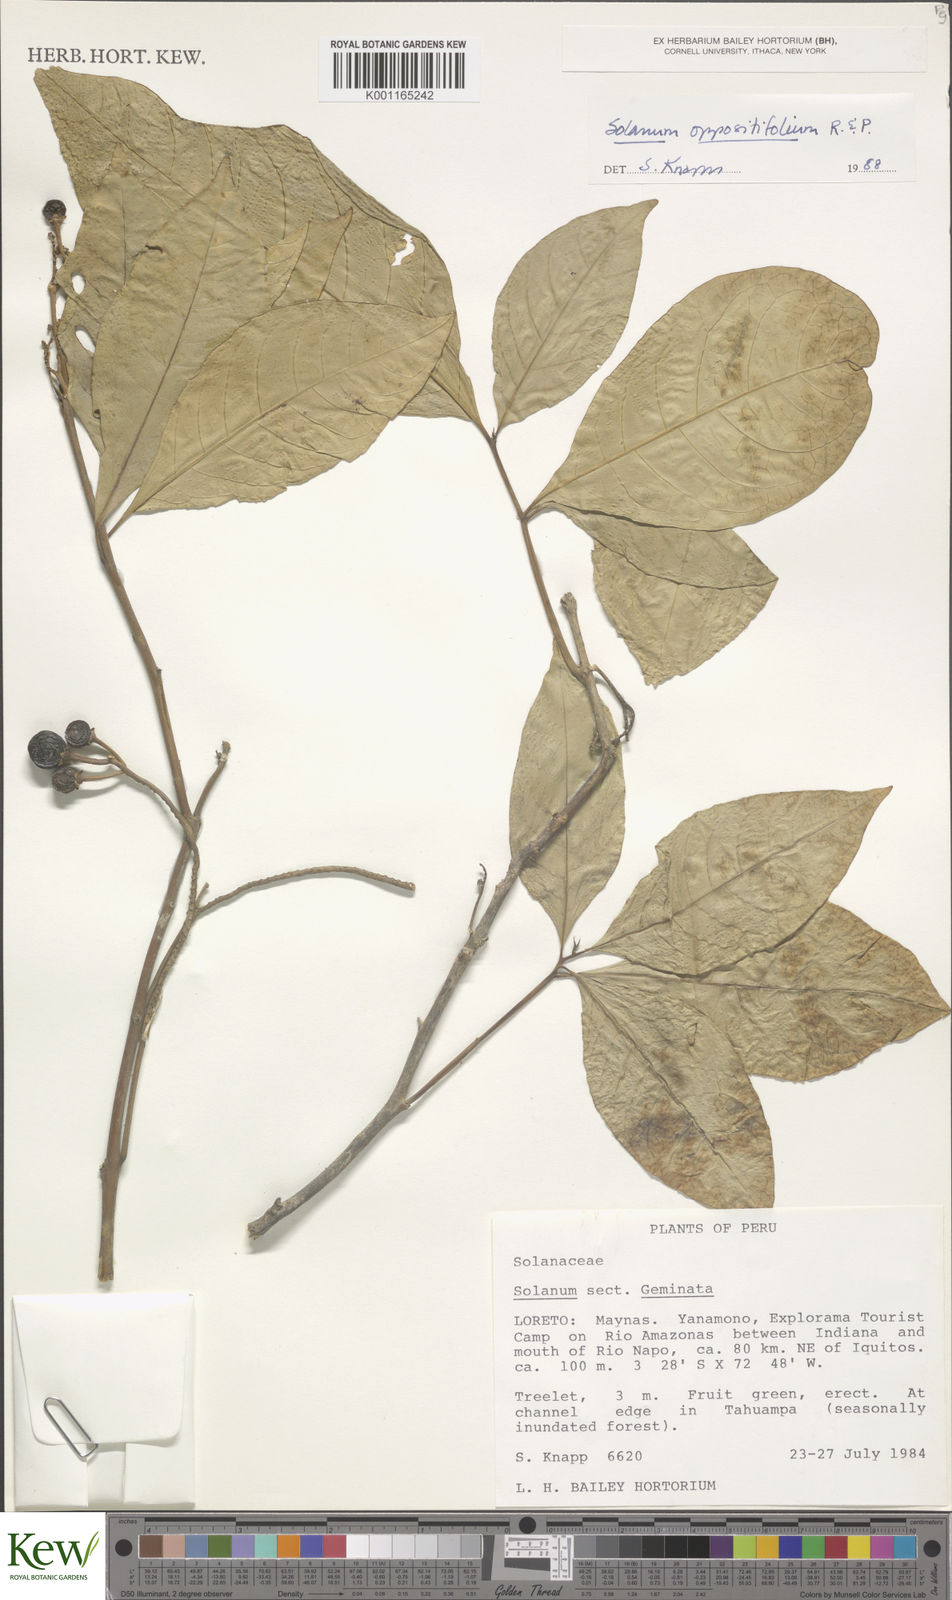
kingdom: Plantae
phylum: Tracheophyta
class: Magnoliopsida
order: Solanales
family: Solanaceae
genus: Solanum
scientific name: Solanum oppositifolium
